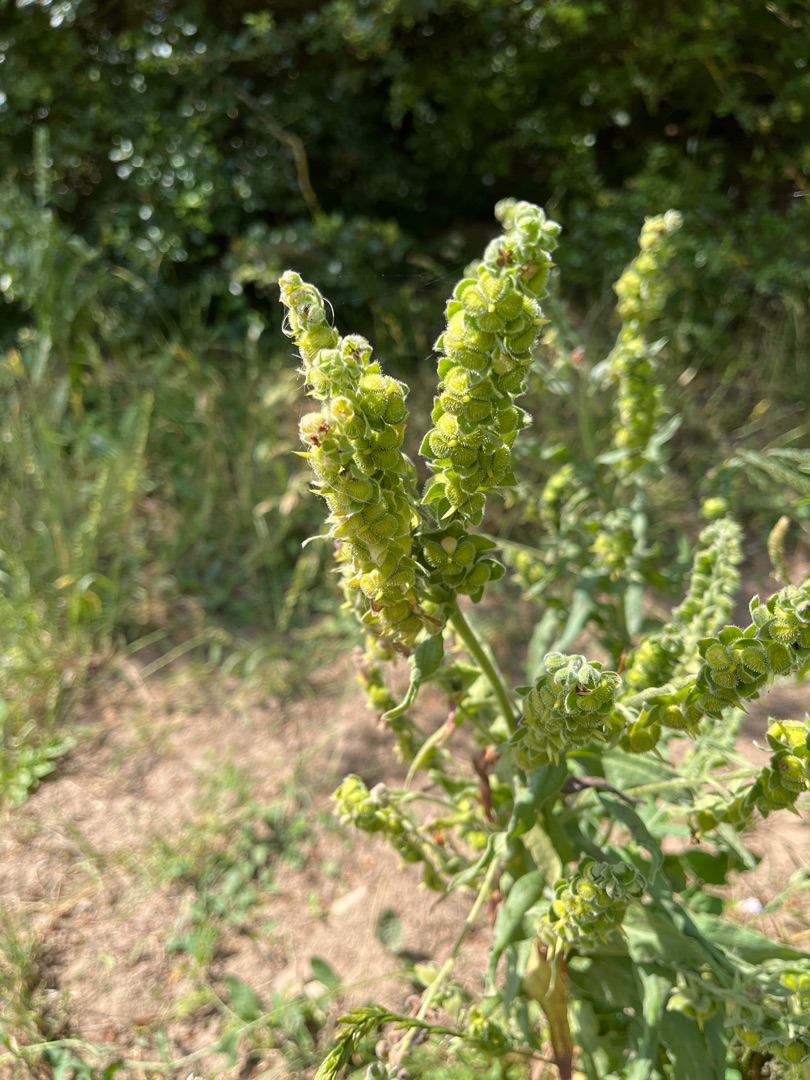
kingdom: Plantae
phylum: Tracheophyta
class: Magnoliopsida
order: Boraginales
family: Boraginaceae
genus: Cynoglossum
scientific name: Cynoglossum officinale
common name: Hundetunge
